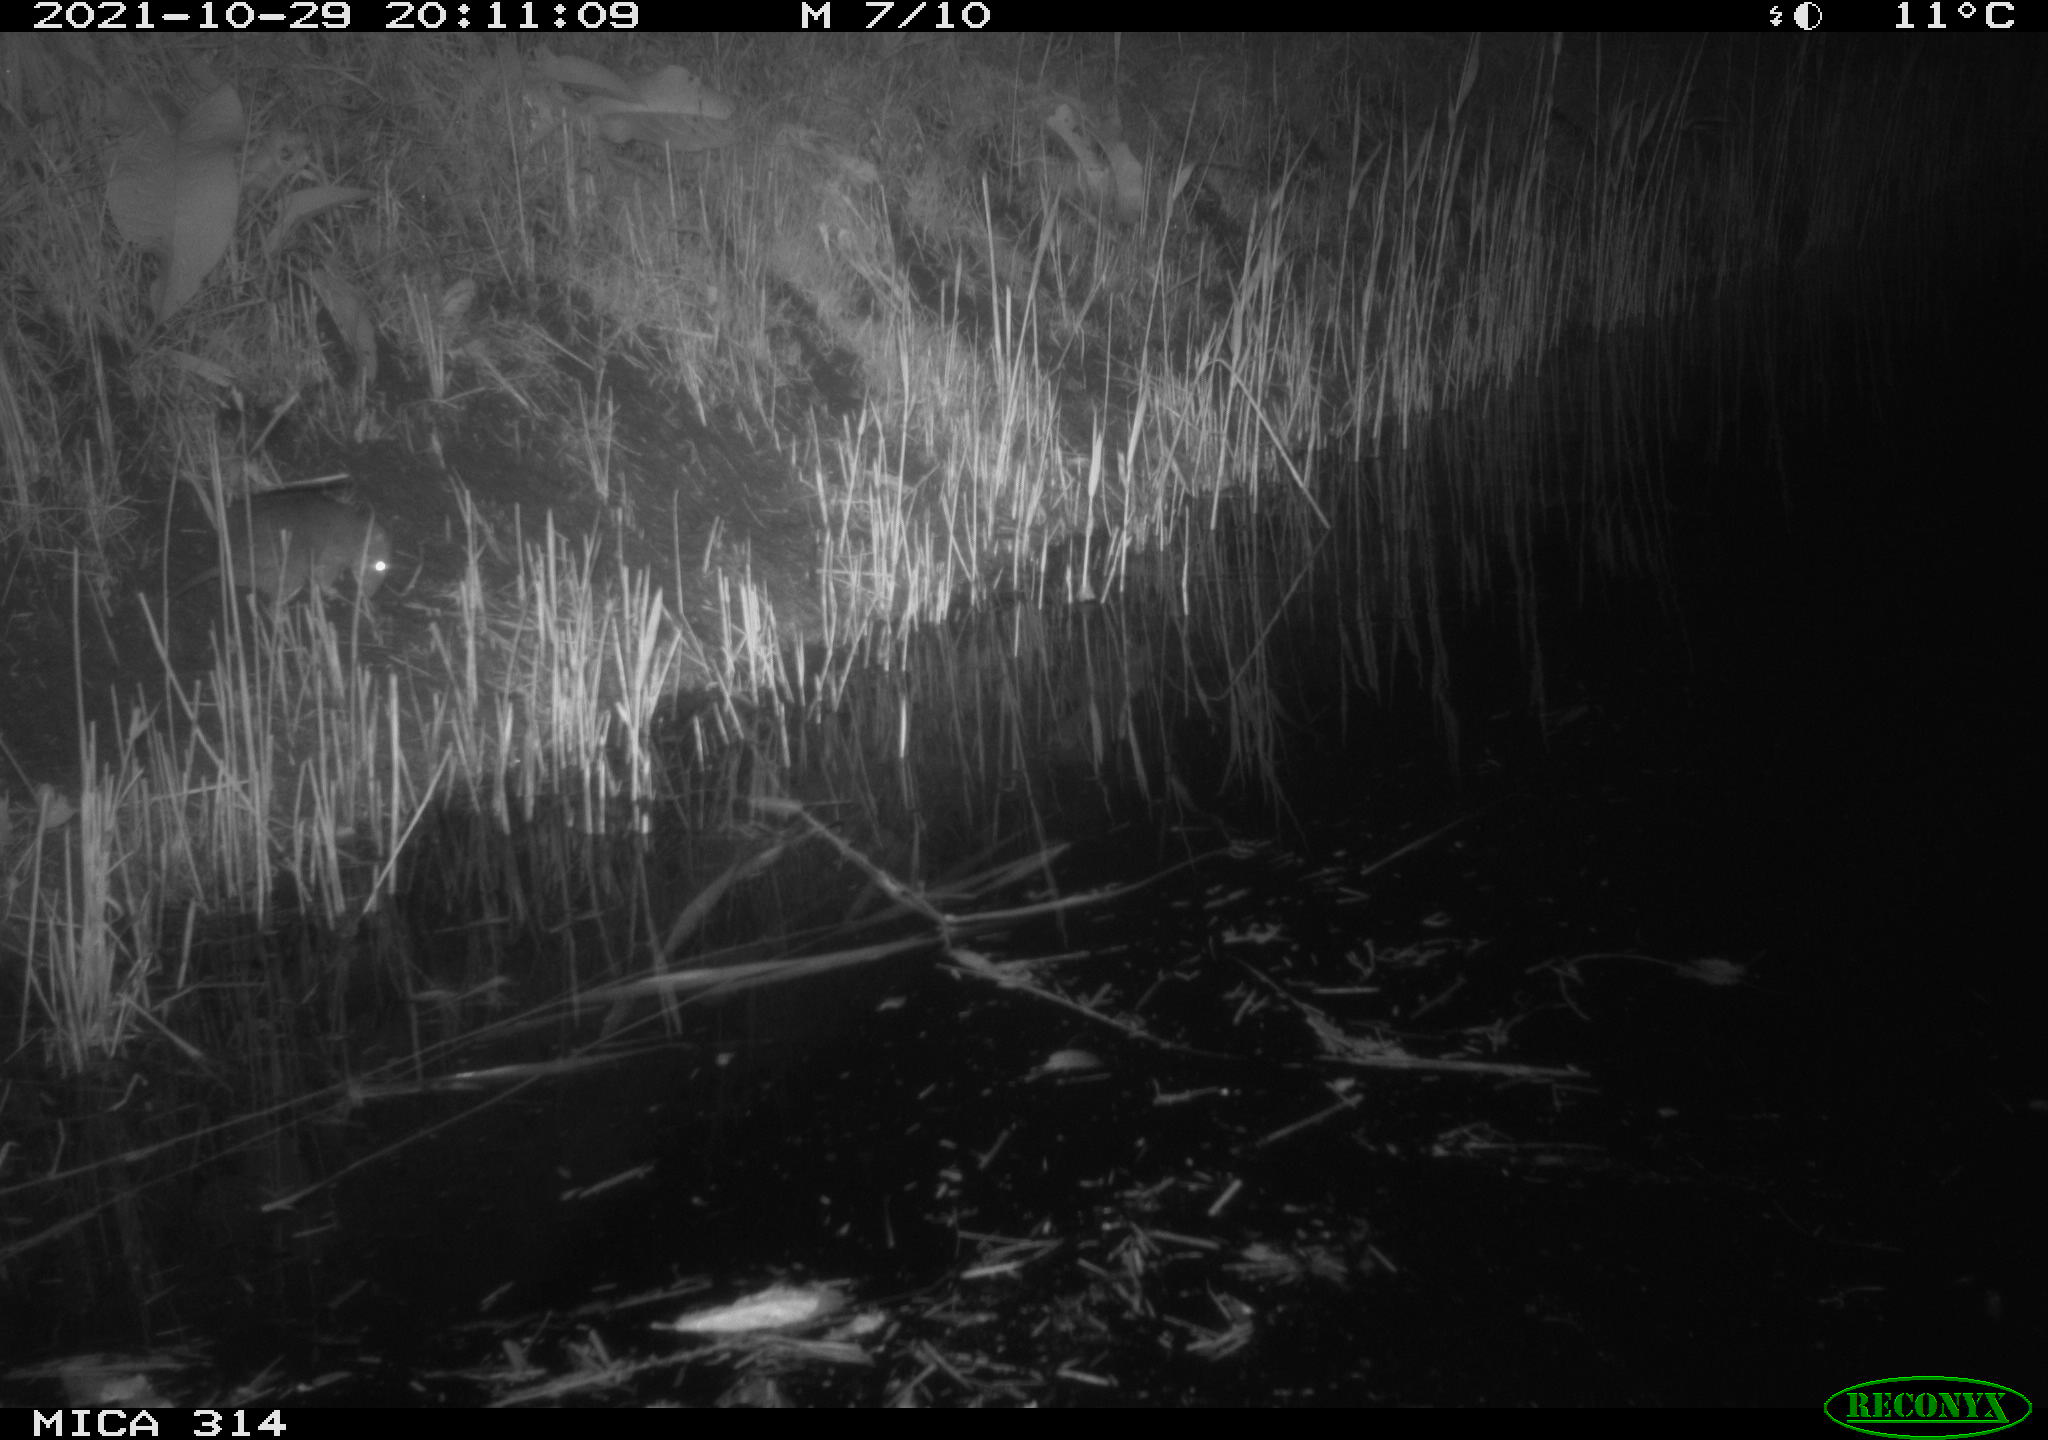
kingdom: Animalia
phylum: Chordata
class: Mammalia
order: Rodentia
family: Muridae
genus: Rattus
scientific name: Rattus norvegicus
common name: Brown rat
